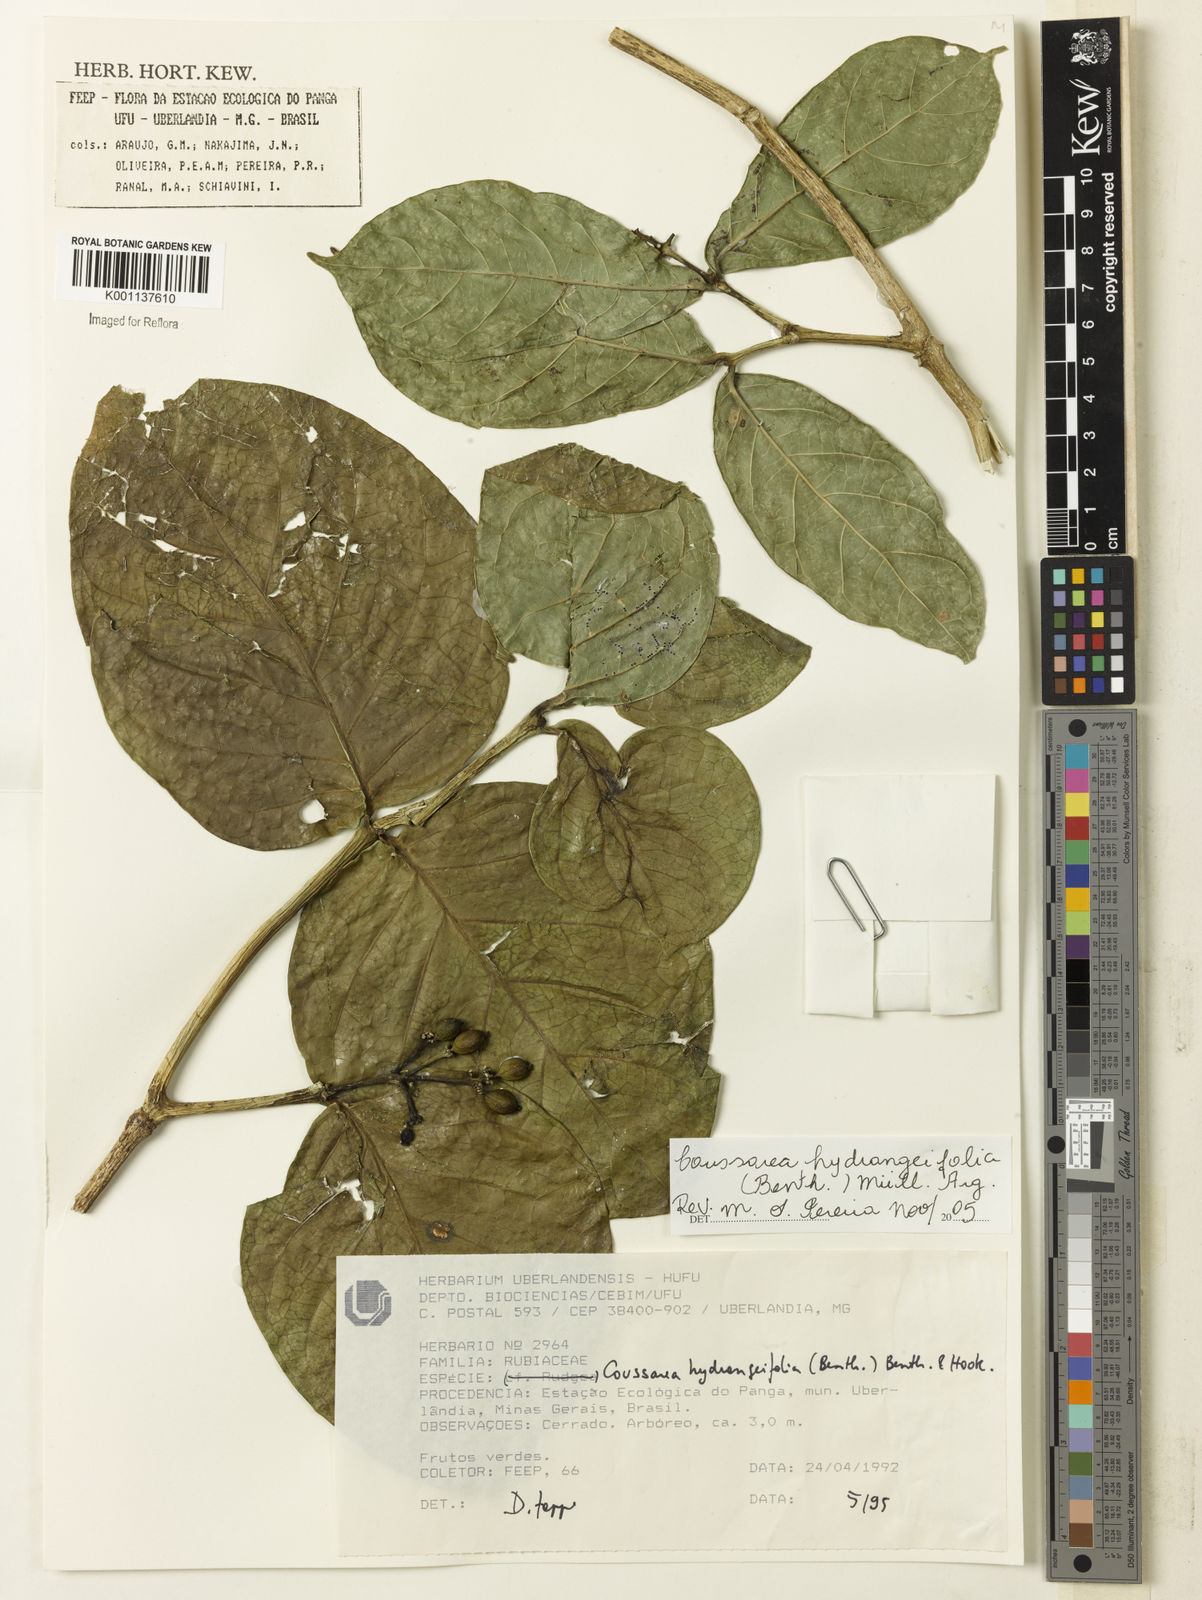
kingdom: Plantae
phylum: Tracheophyta
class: Magnoliopsida
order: Gentianales
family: Rubiaceae
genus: Coussarea
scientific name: Coussarea
